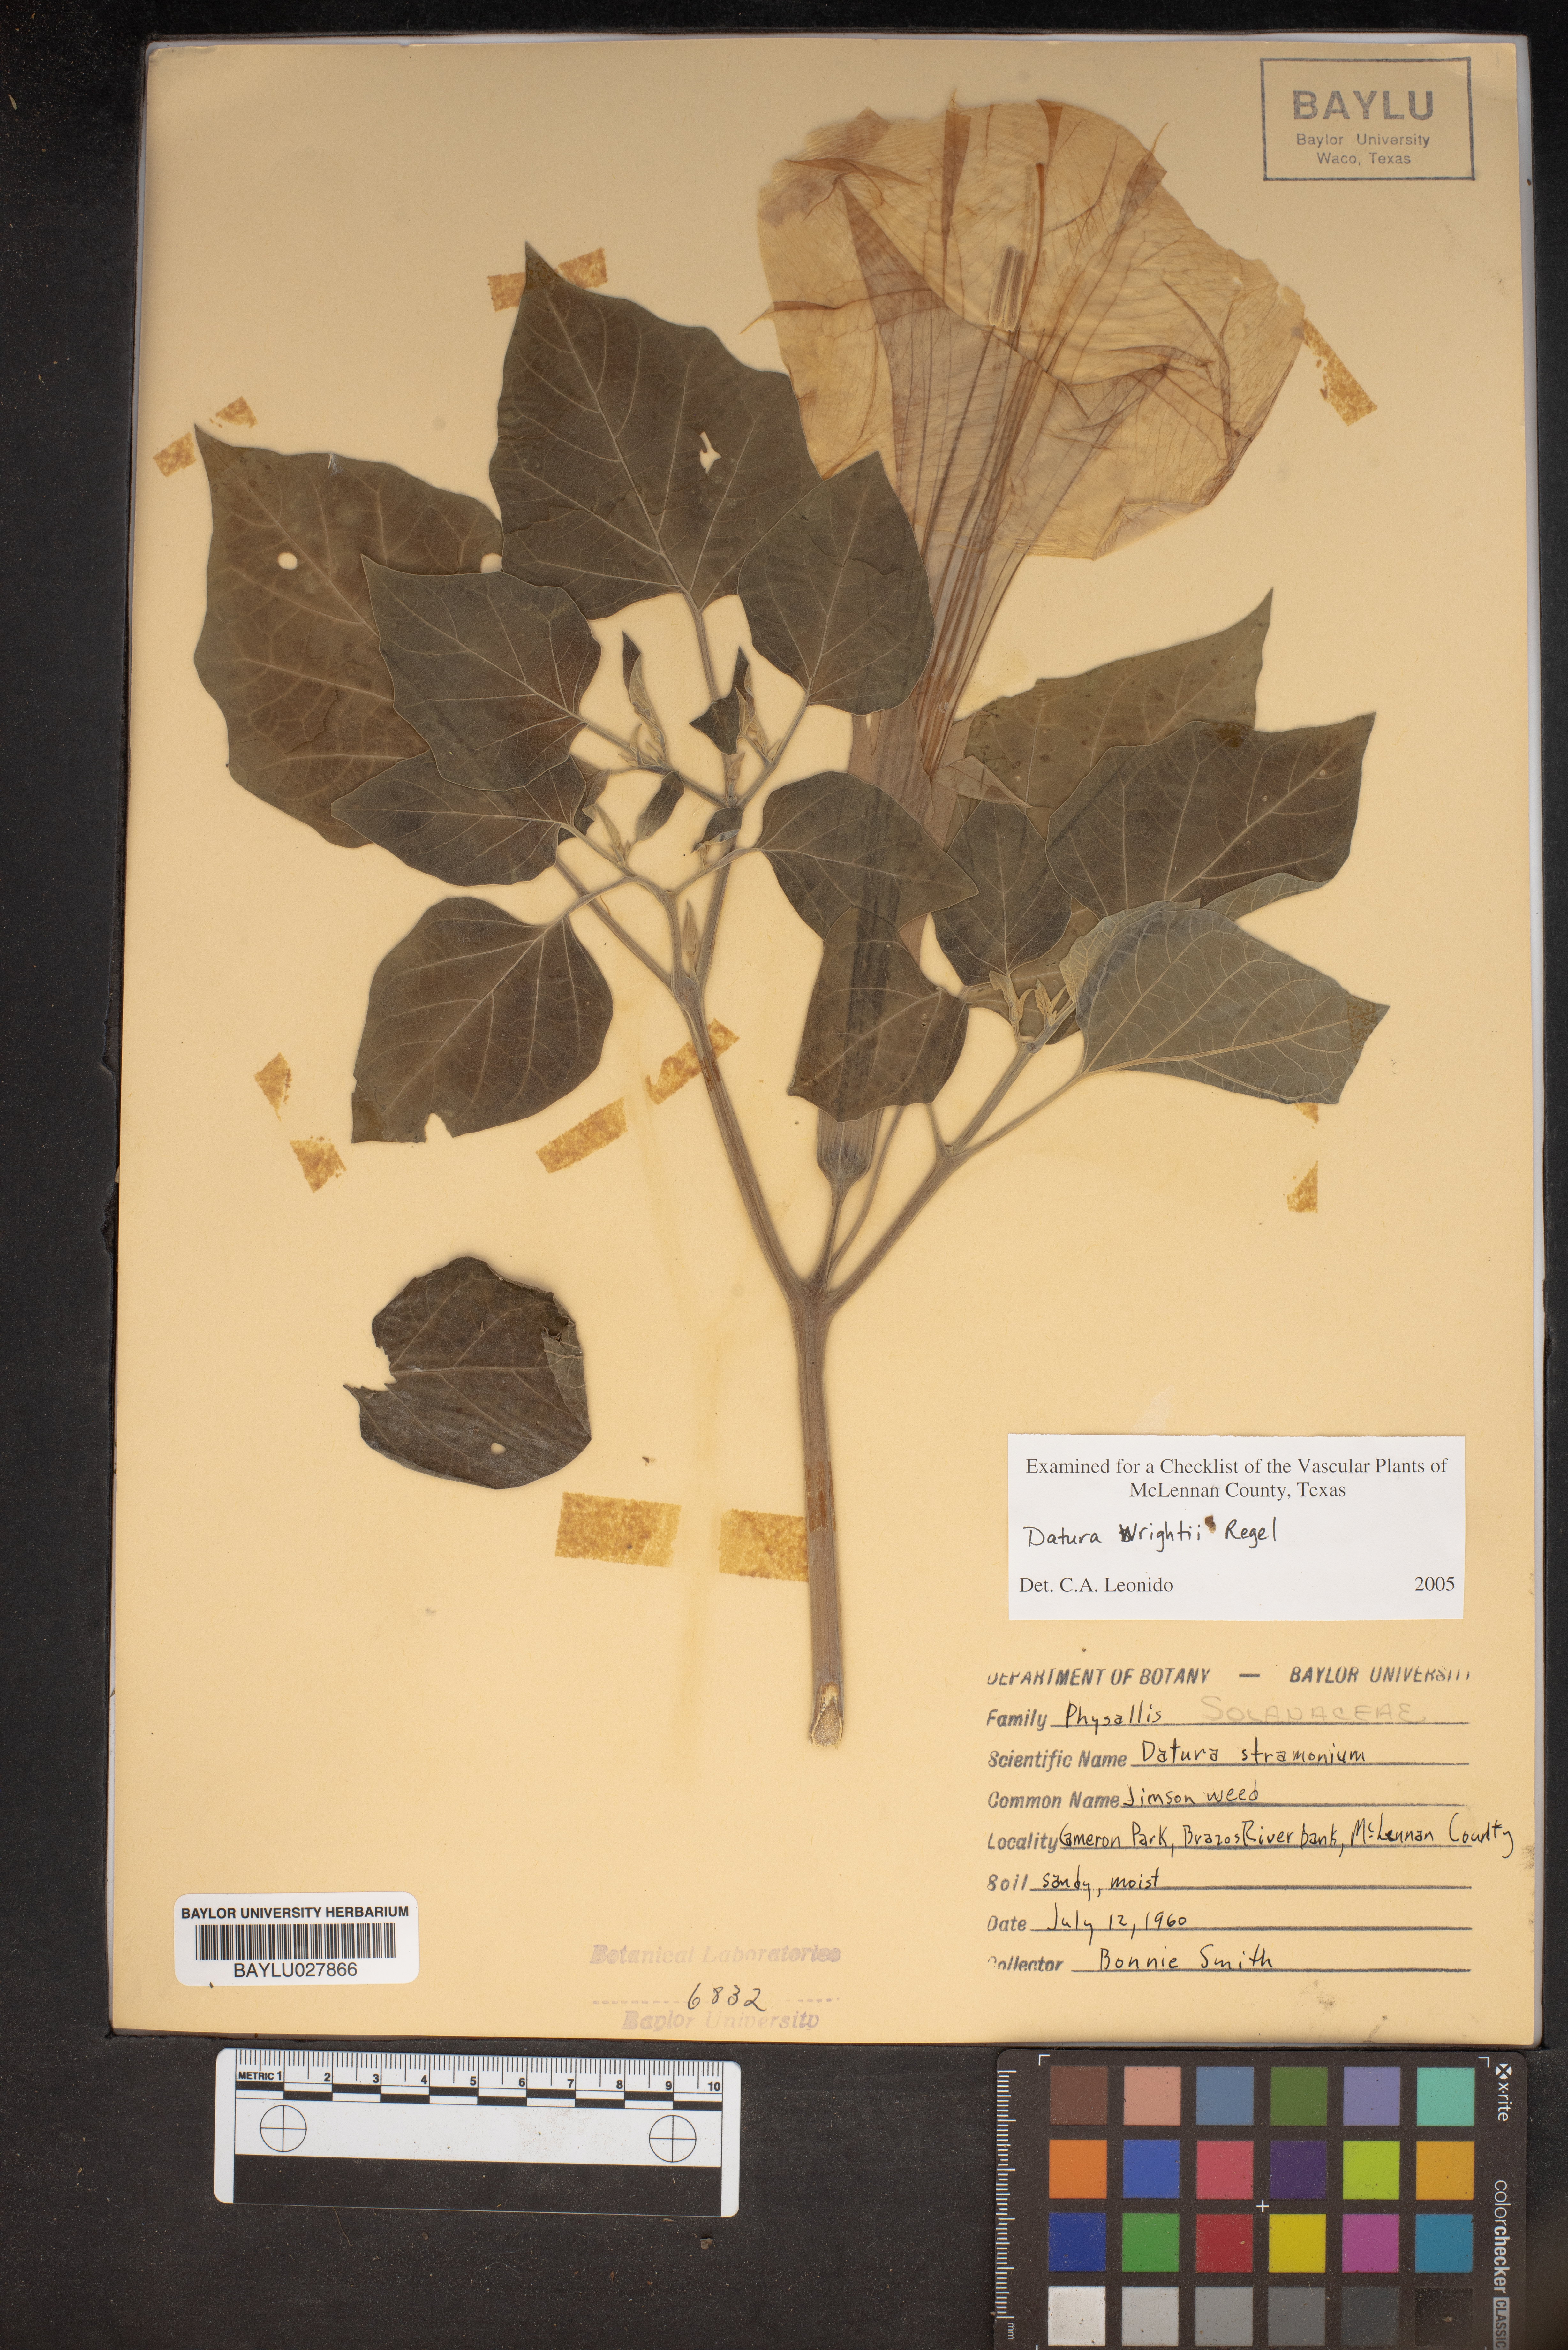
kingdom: Plantae
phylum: Tracheophyta
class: Magnoliopsida
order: Solanales
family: Solanaceae
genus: Datura
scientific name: Datura wrightii
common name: Sacred thorn-apple
